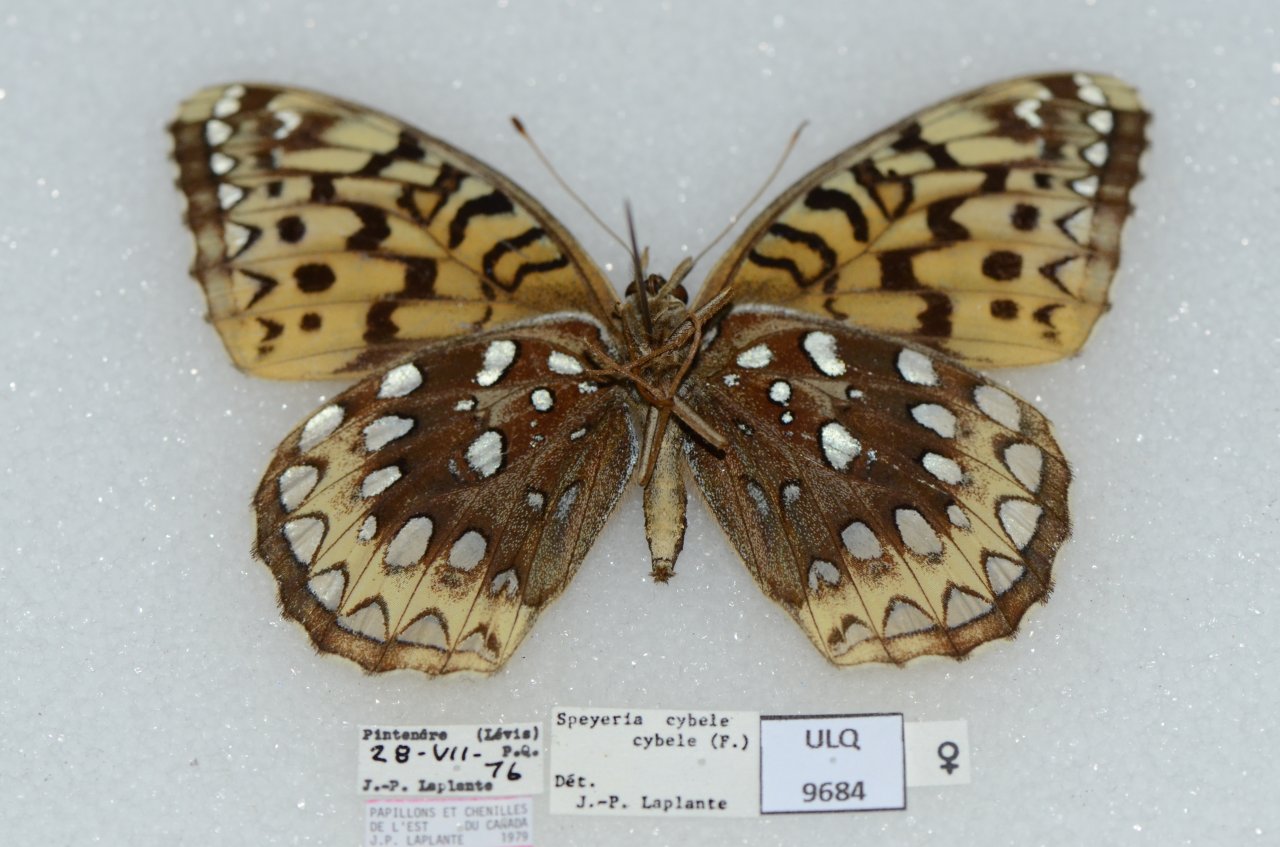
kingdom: Animalia
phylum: Arthropoda
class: Insecta
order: Lepidoptera
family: Nymphalidae
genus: Speyeria
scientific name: Speyeria cybele
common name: Great Spangled Fritillary
